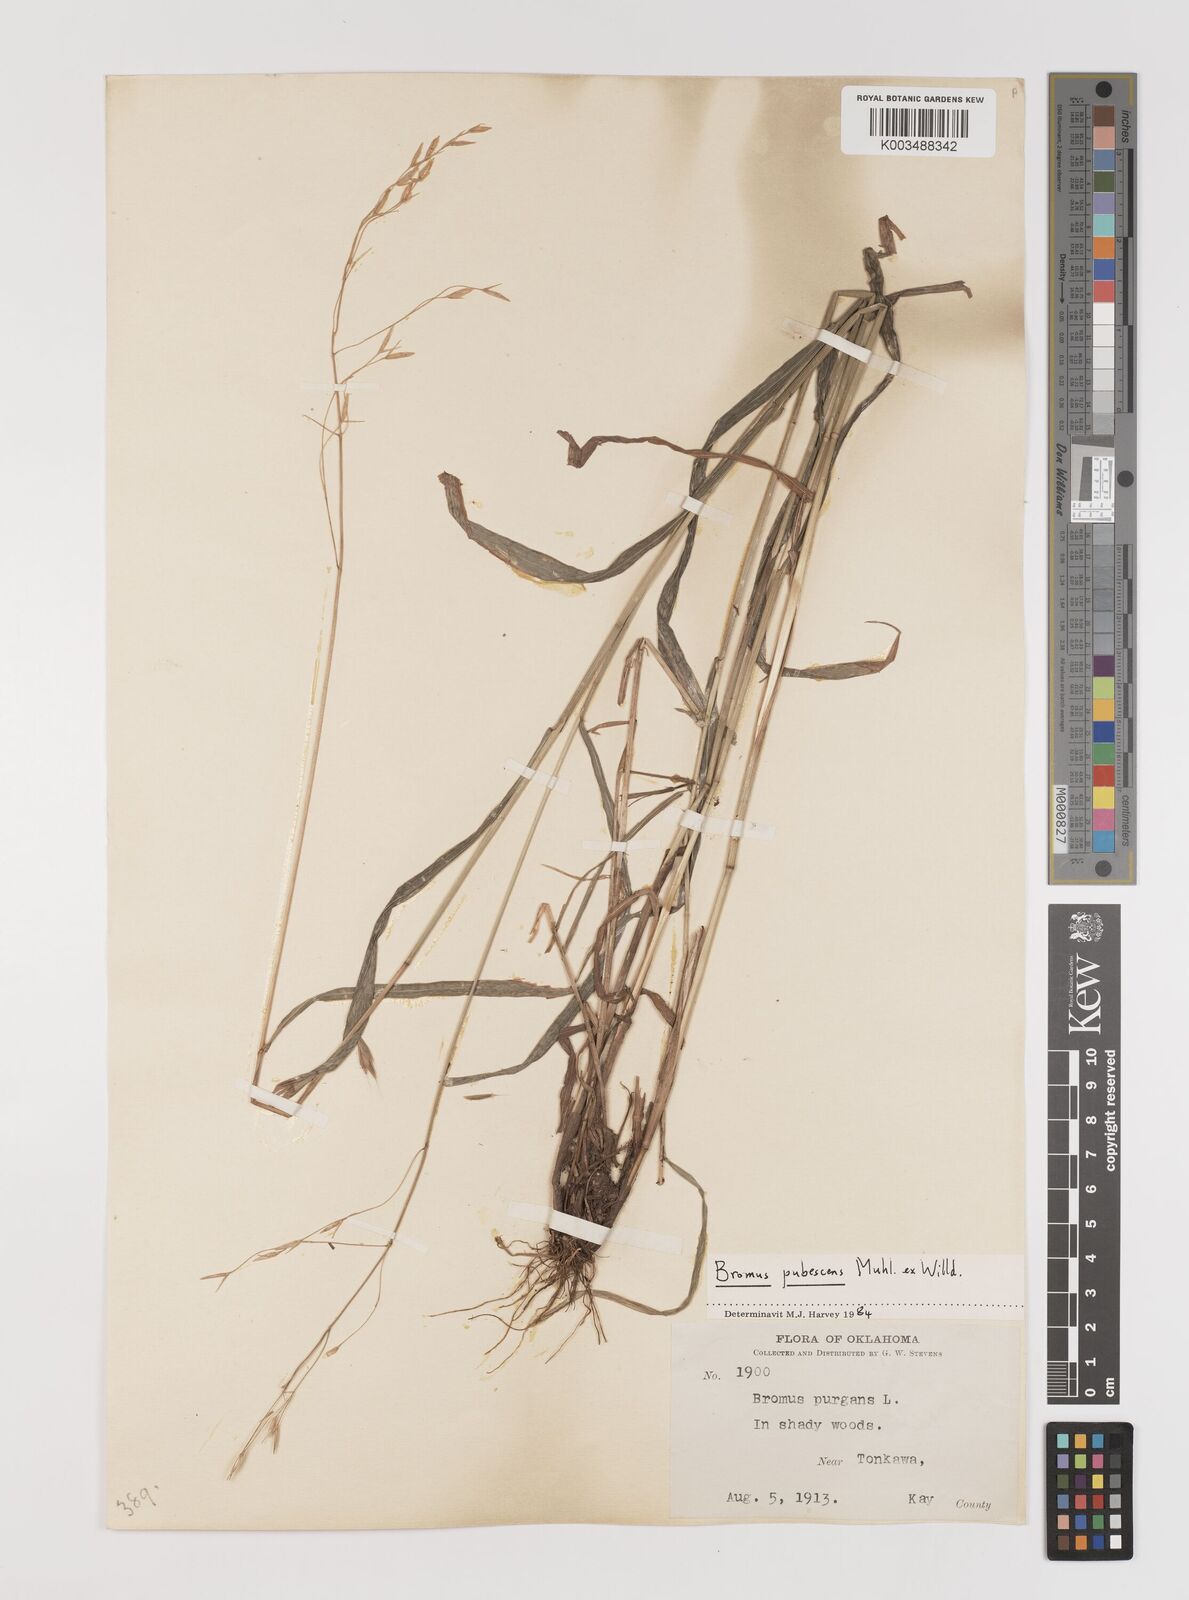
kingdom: Plantae
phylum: Tracheophyta
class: Liliopsida
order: Poales
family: Poaceae
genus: Bromus
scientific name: Bromus pubescens
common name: Hairy wood brome grass
